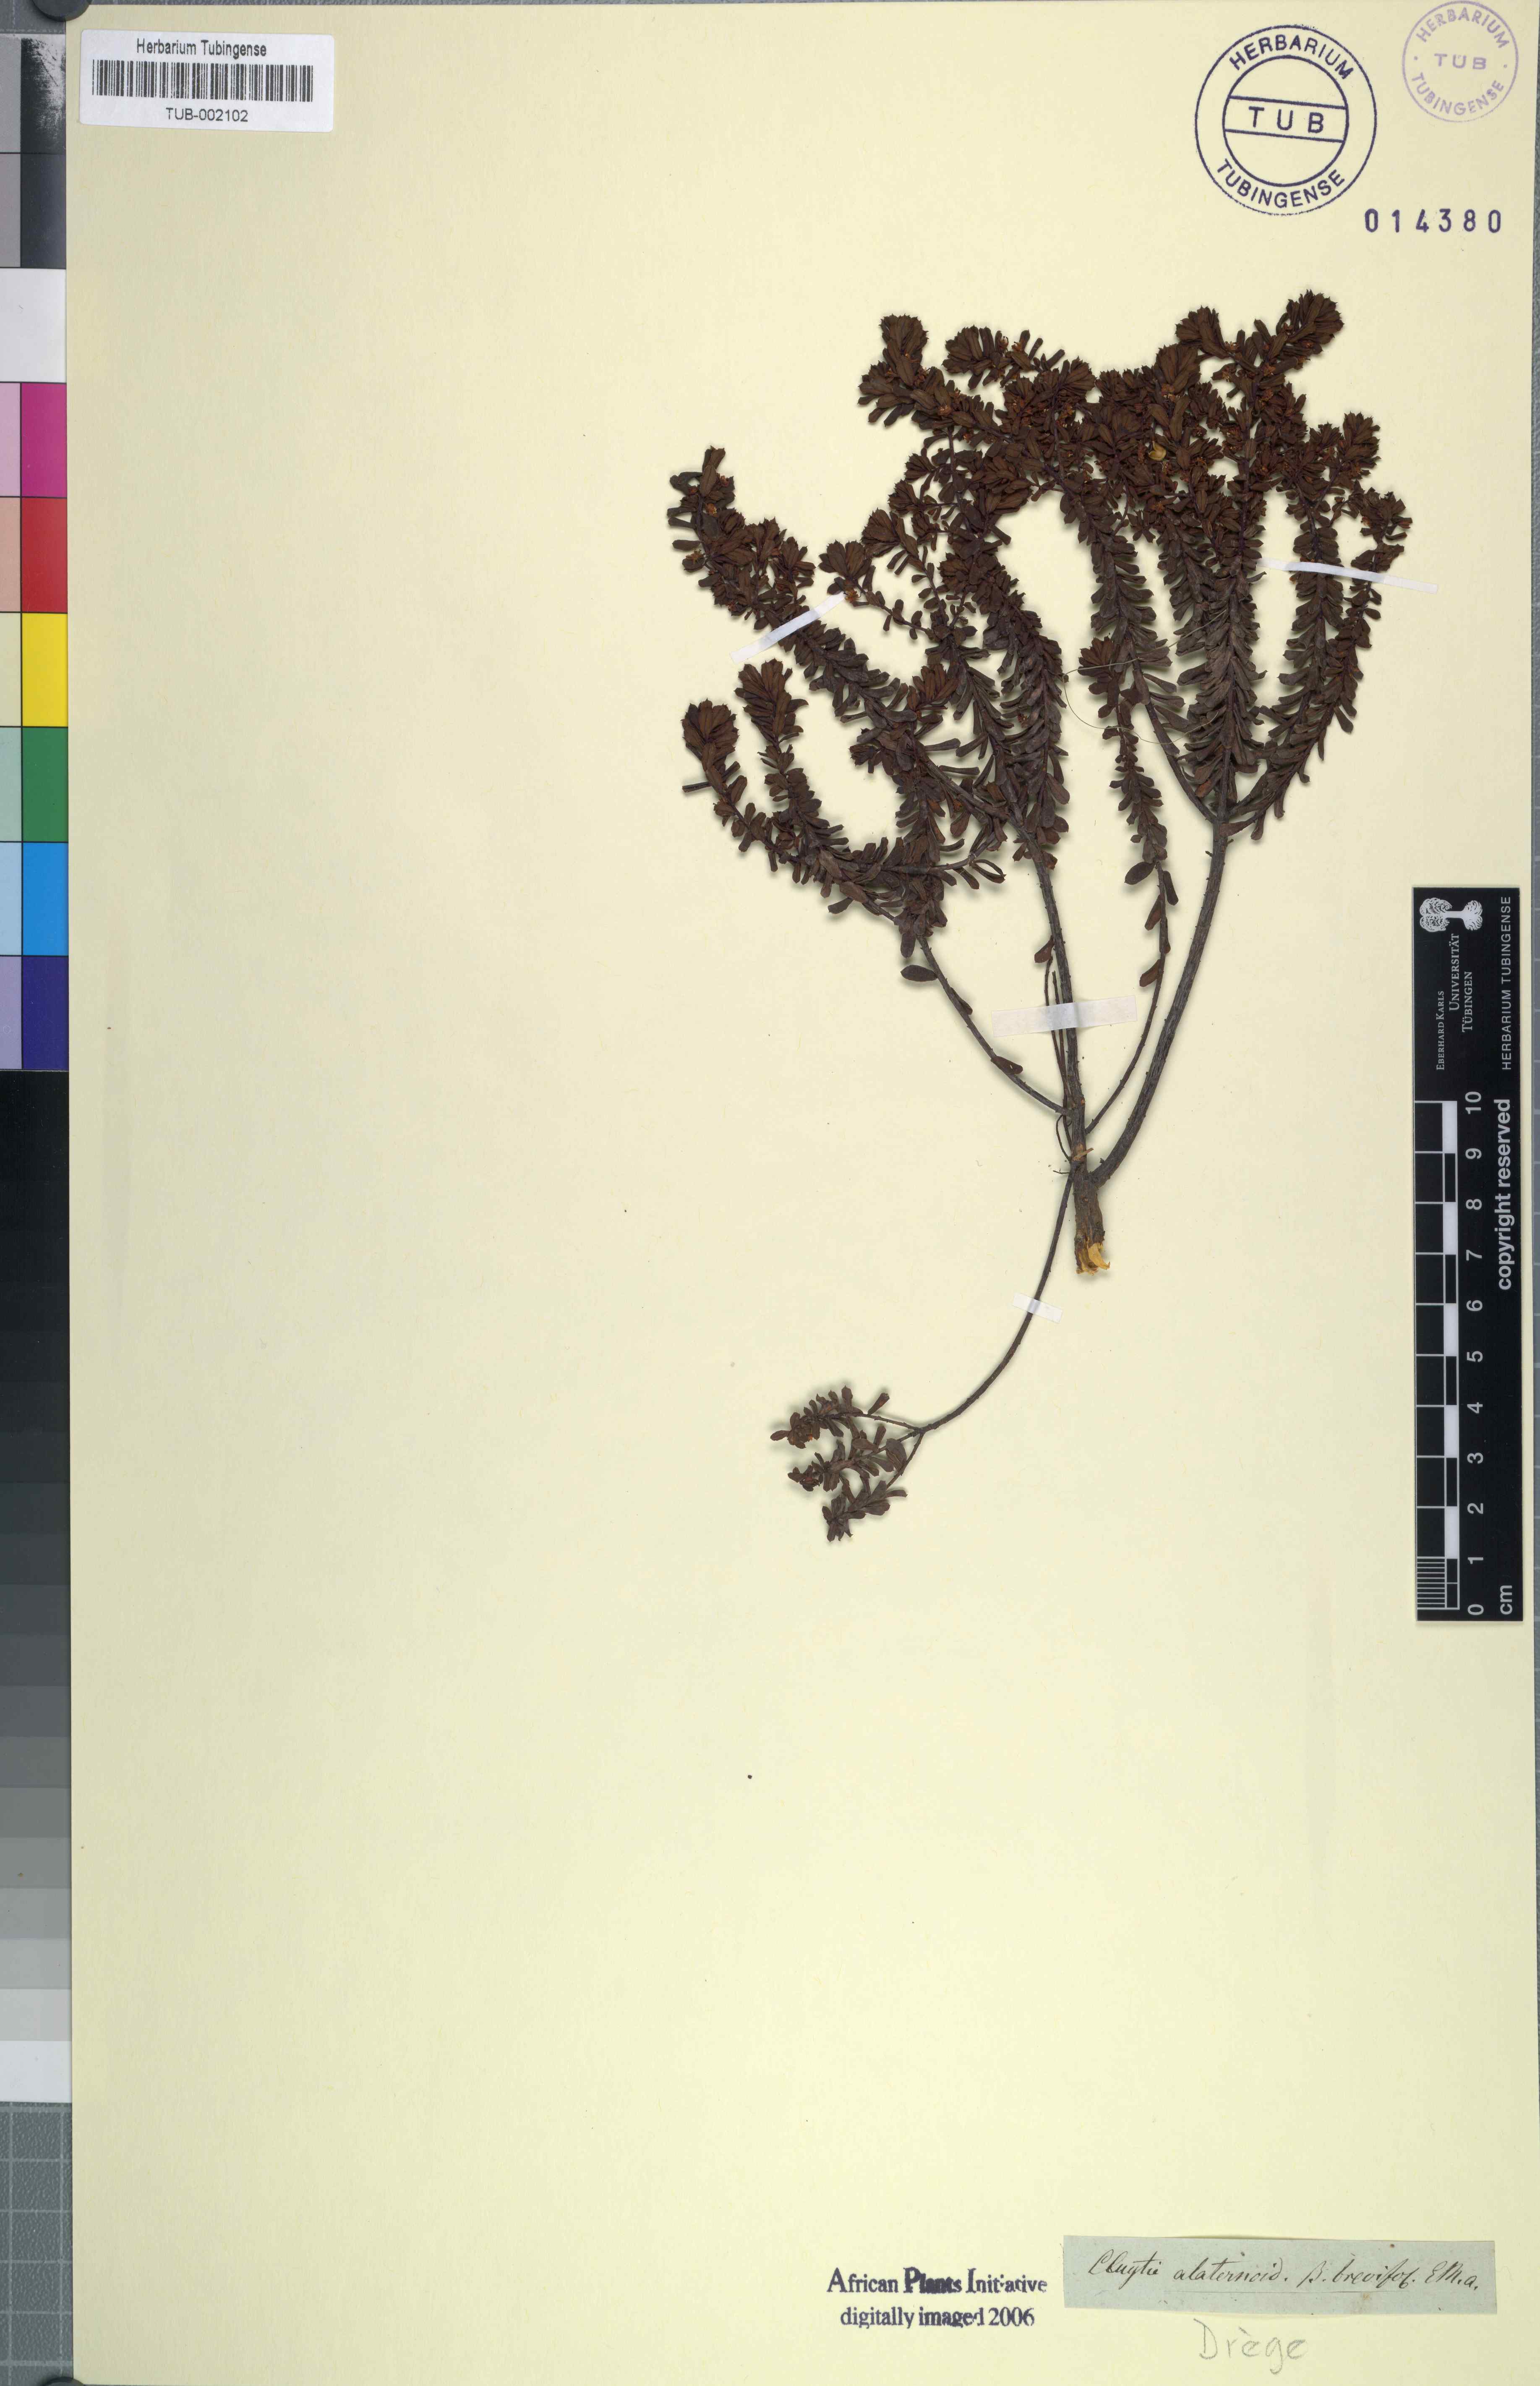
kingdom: Plantae
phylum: Tracheophyta
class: Magnoliopsida
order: Malpighiales
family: Peraceae
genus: Clutia
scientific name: Clutia alaternoides
